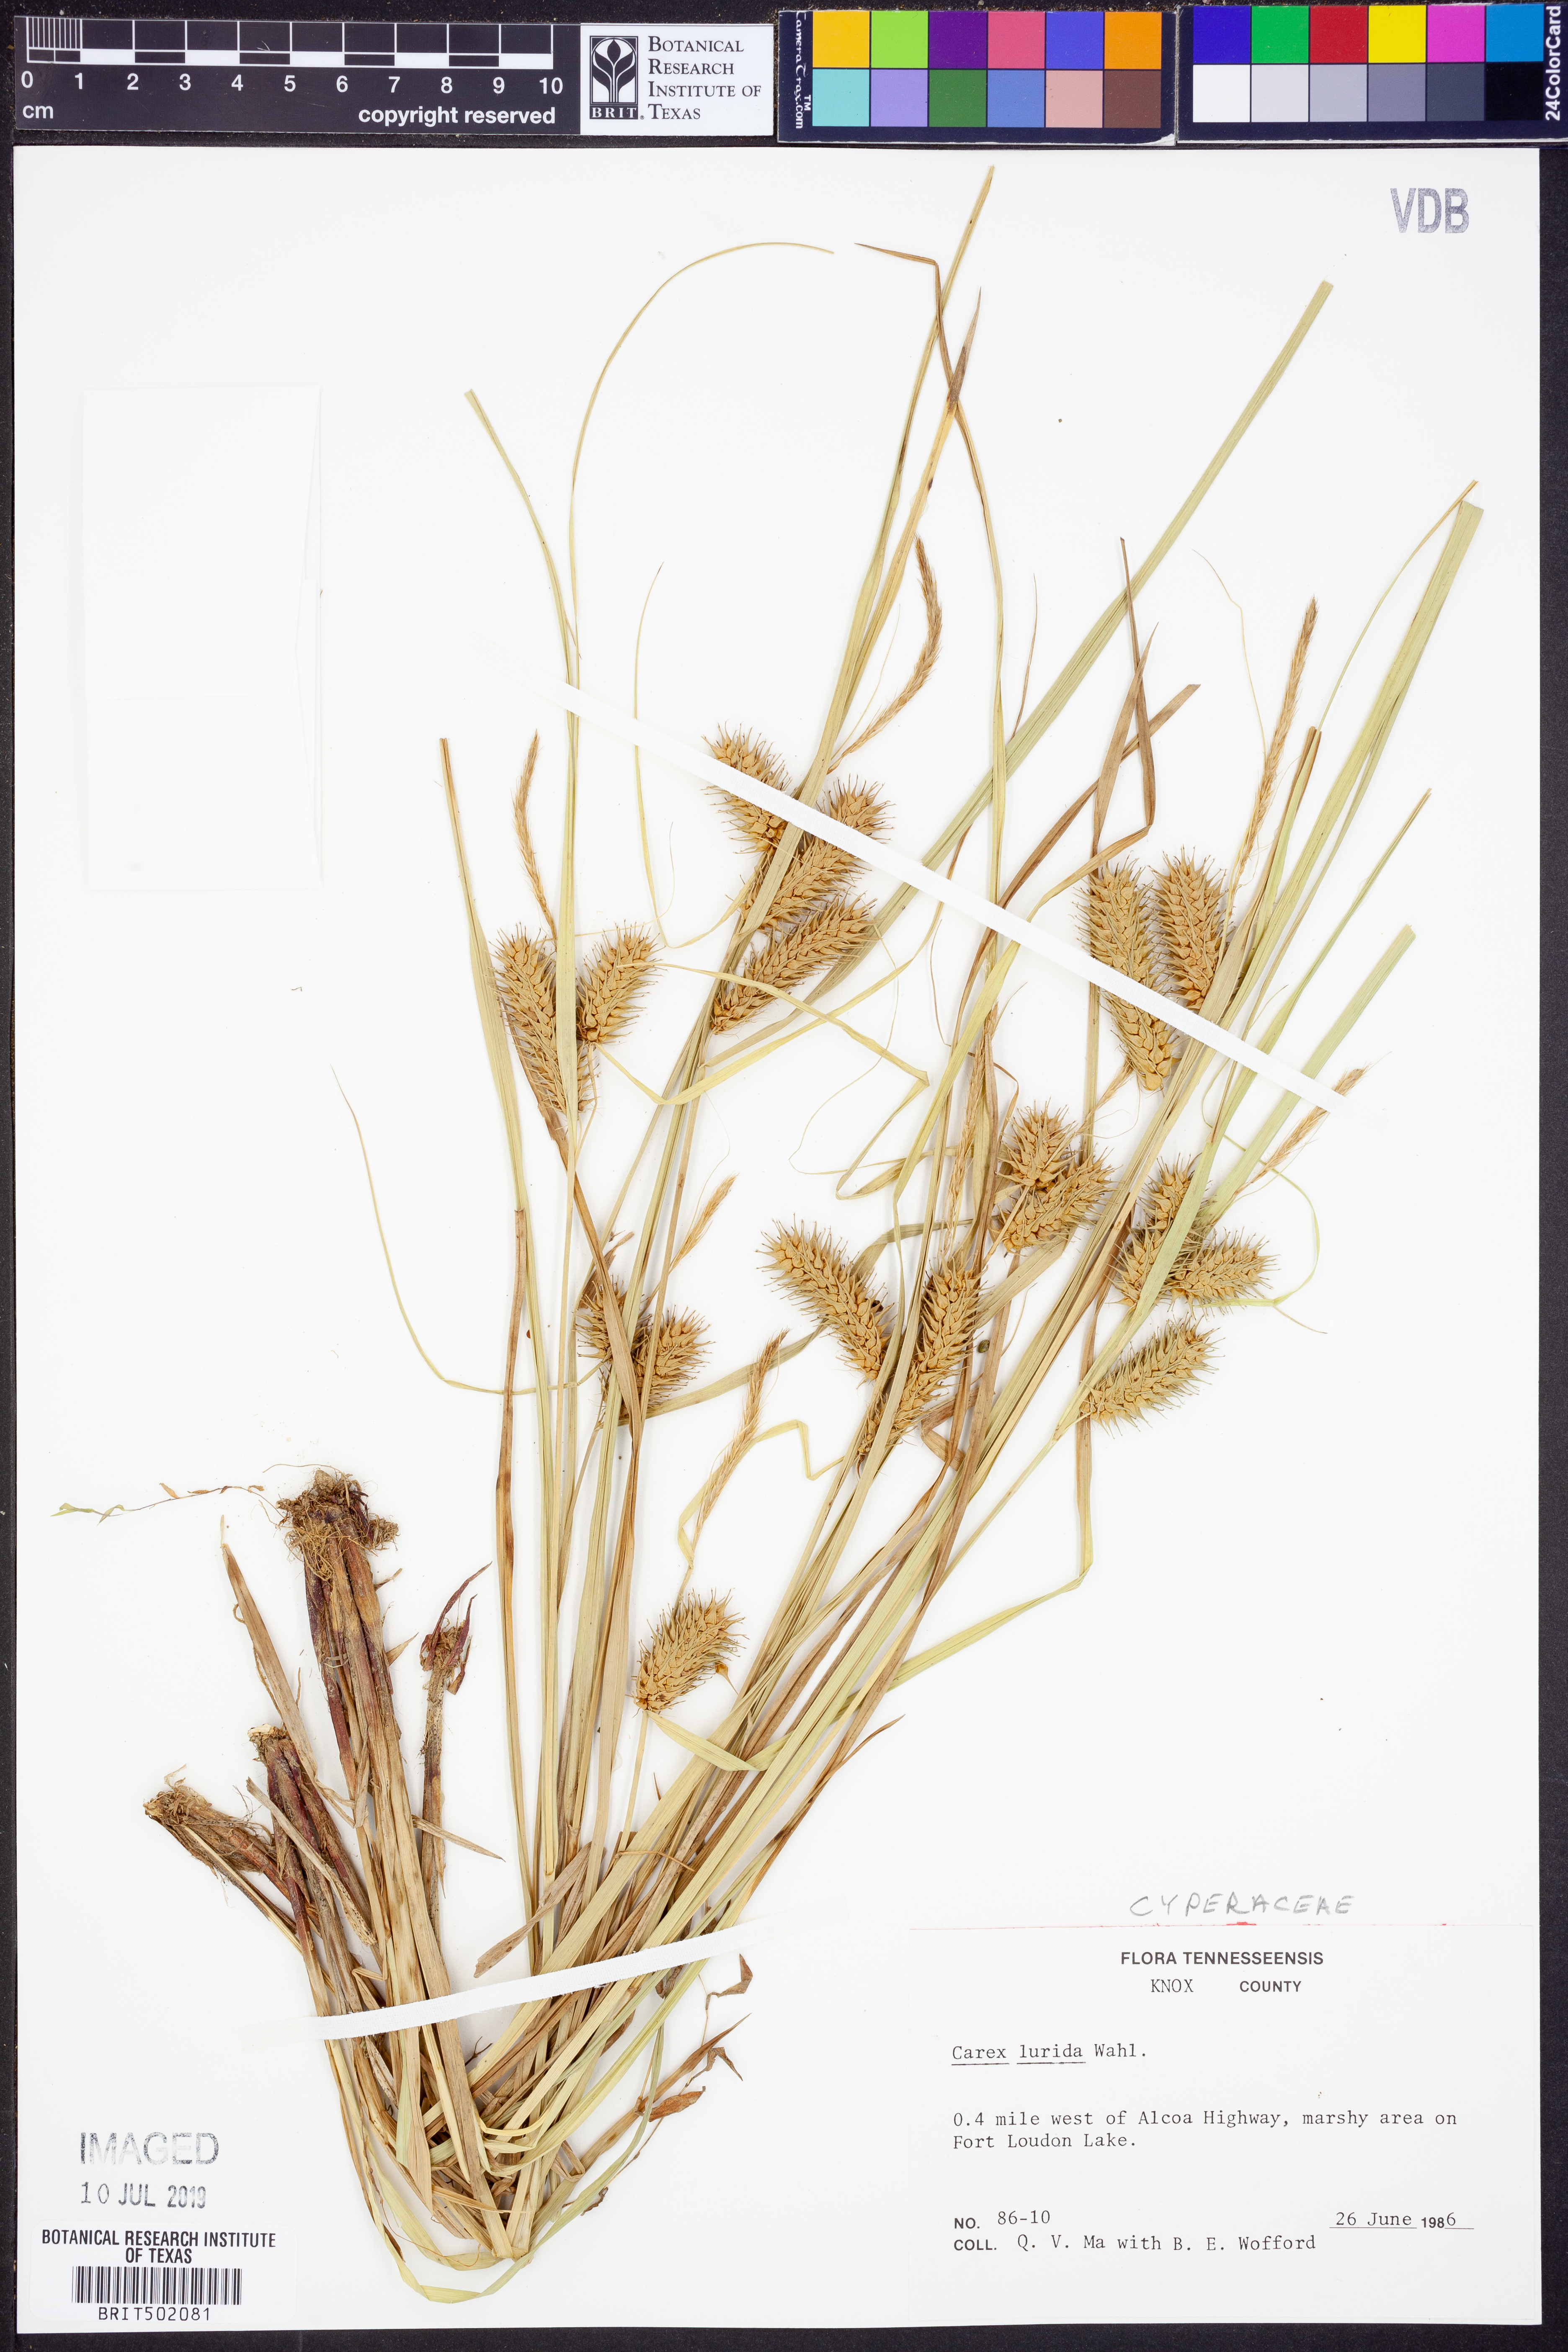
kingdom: Plantae
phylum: Tracheophyta
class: Liliopsida
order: Poales
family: Cyperaceae
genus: Carex
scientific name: Carex lurida
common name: Sallow sedge
